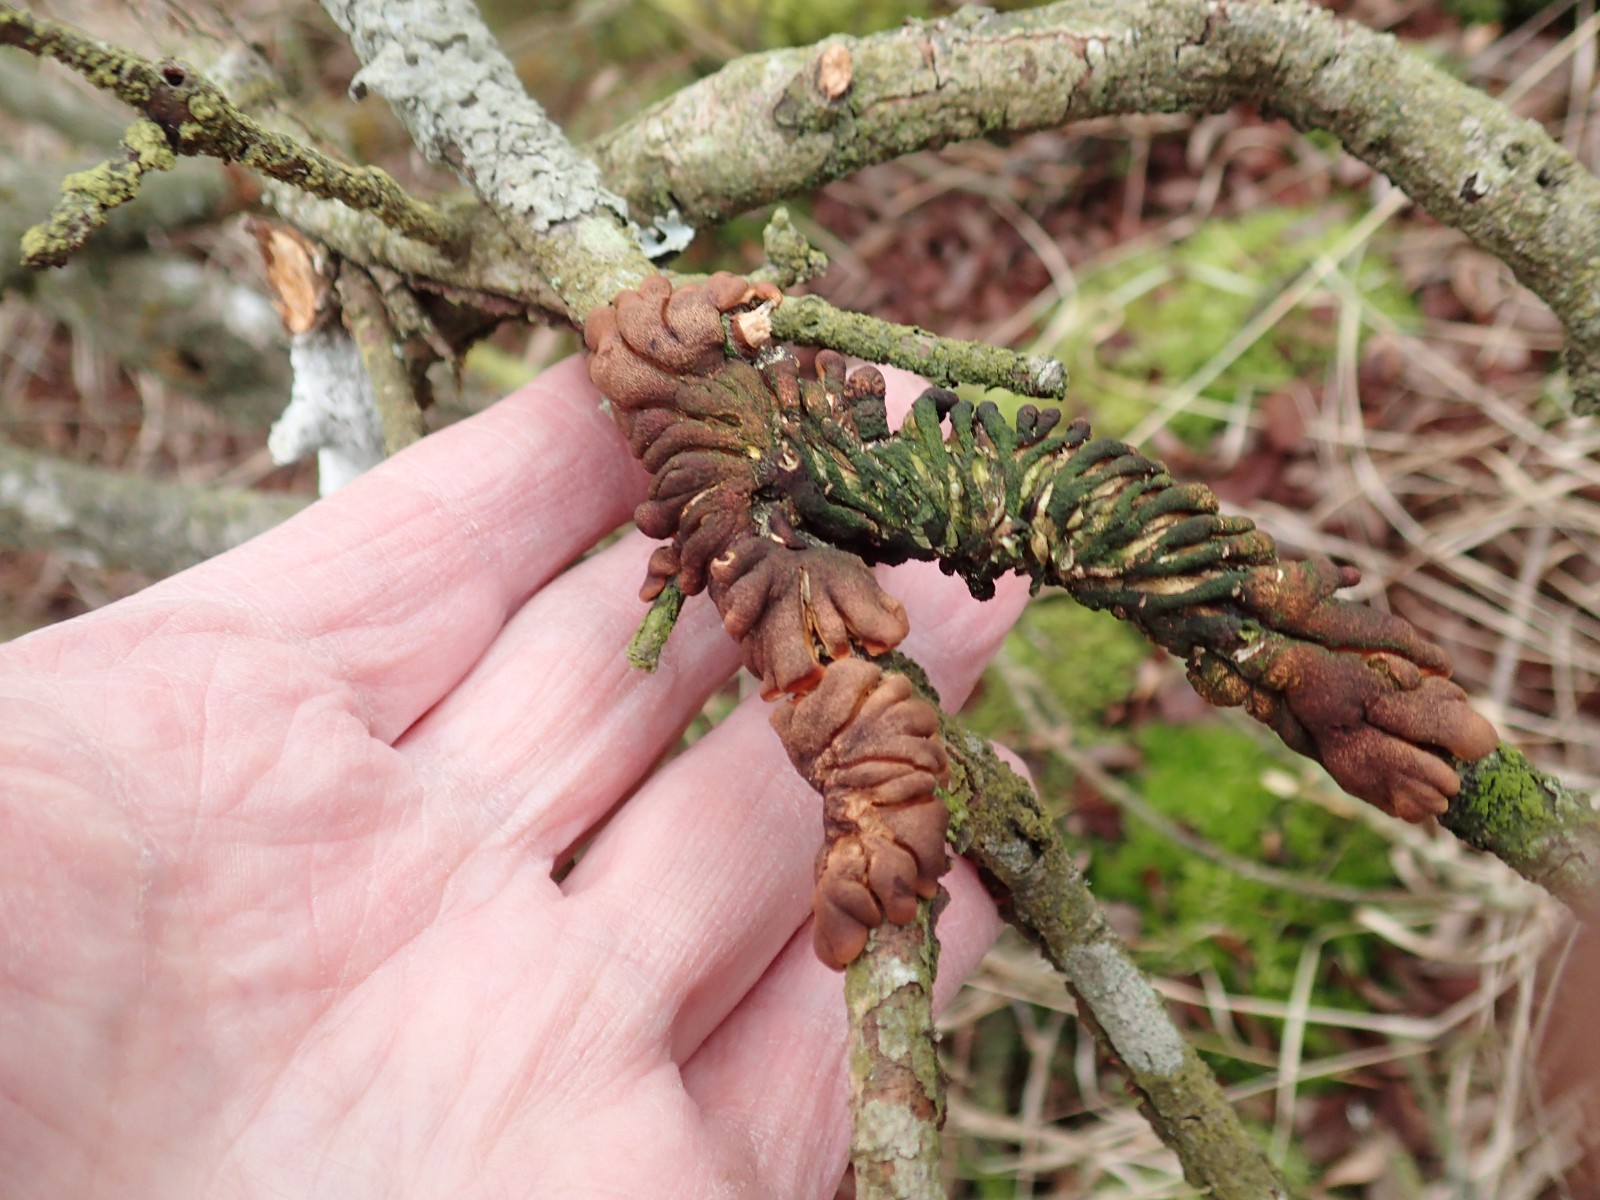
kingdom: Fungi
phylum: Ascomycota
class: Sordariomycetes
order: Hypocreales
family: Hypocreaceae
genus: Hypocreopsis
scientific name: Hypocreopsis lichenoides
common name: pilfinger
